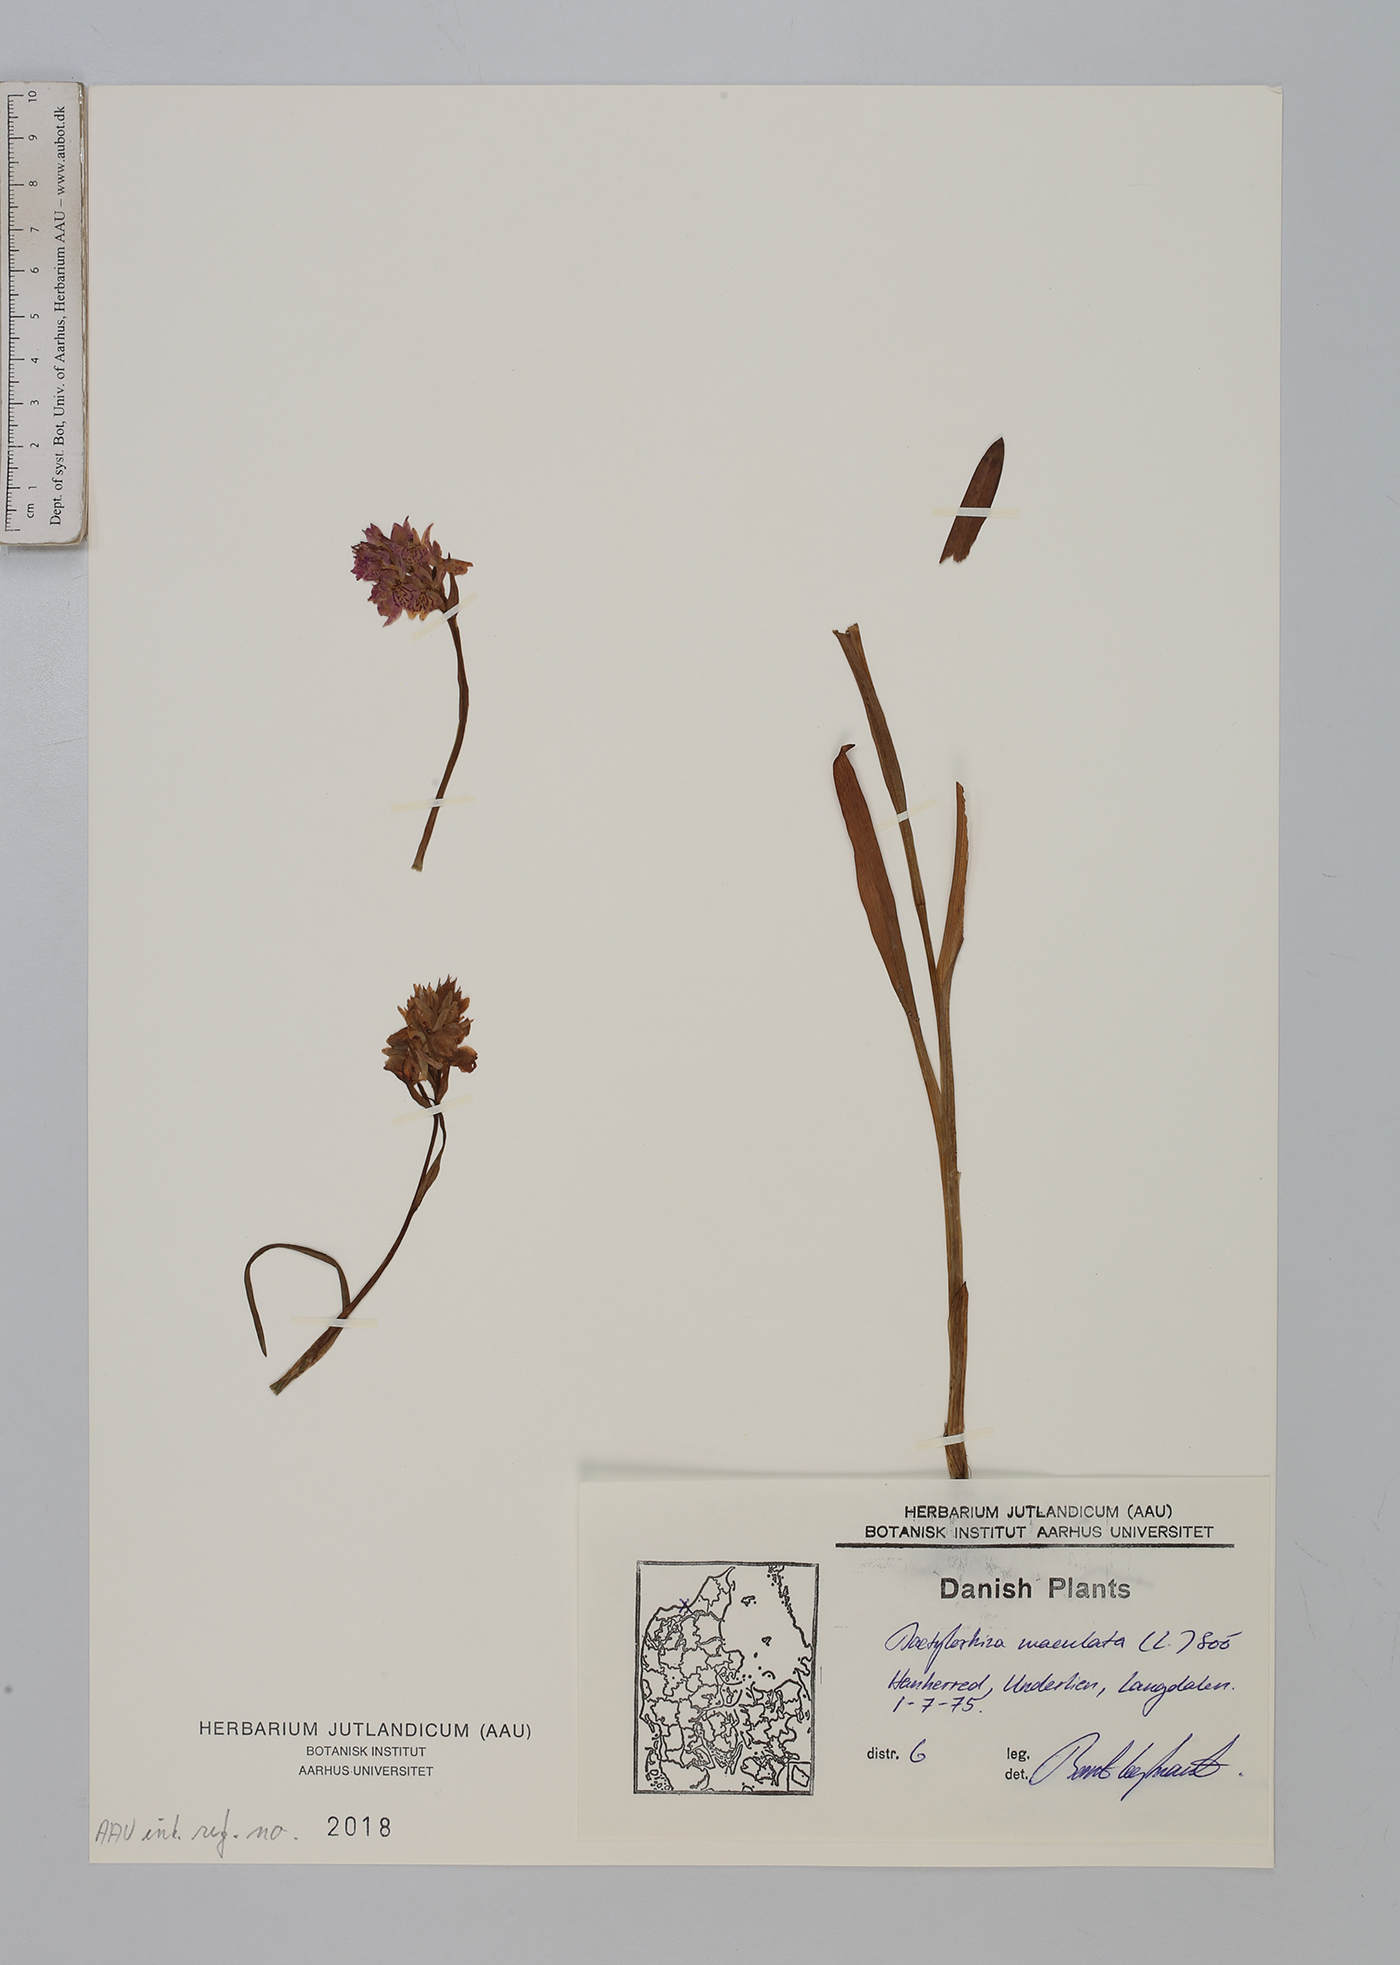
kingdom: Plantae
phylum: Tracheophyta
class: Liliopsida
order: Asparagales
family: Orchidaceae
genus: Dactylorhiza
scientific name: Dactylorhiza maculata
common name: Heath spotted-orchid
